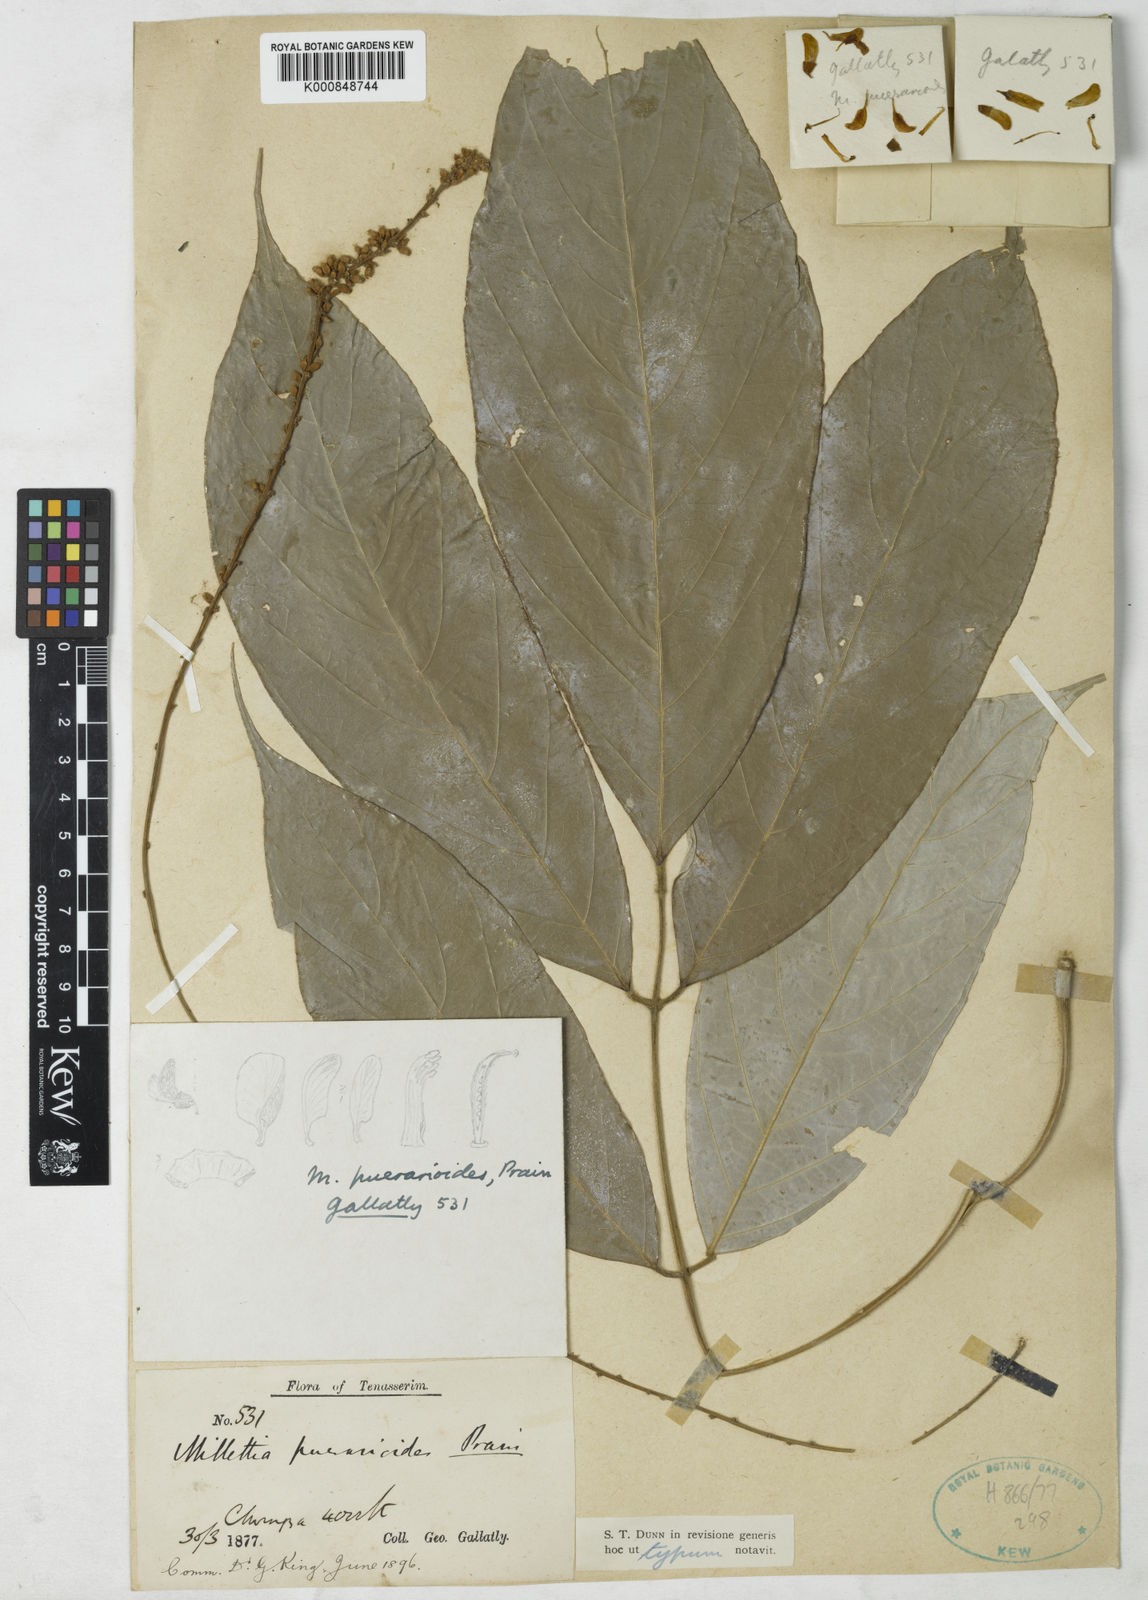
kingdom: Plantae
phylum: Tracheophyta
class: Magnoliopsida
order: Fabales
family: Fabaceae
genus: Millettia
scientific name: Millettia puerarioides
